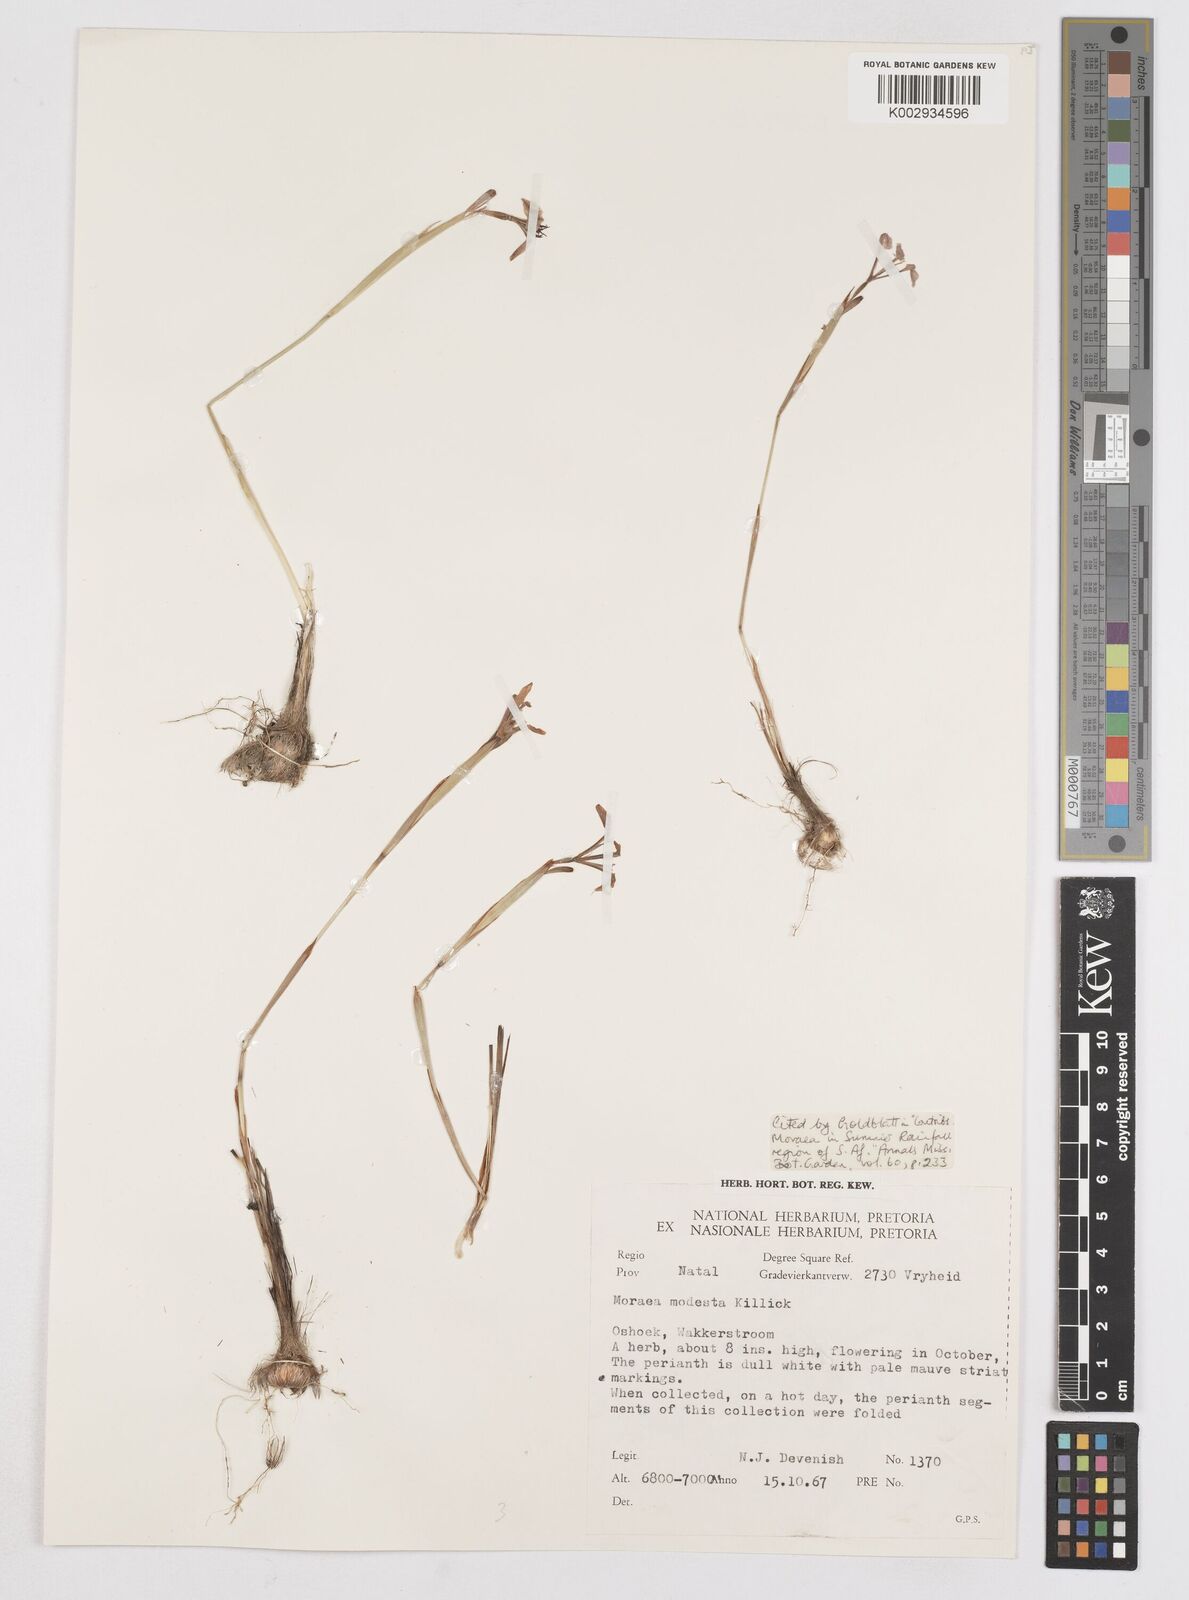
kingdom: Plantae
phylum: Tracheophyta
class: Liliopsida
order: Asparagales
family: Iridaceae
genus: Moraea
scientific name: Moraea modesta
